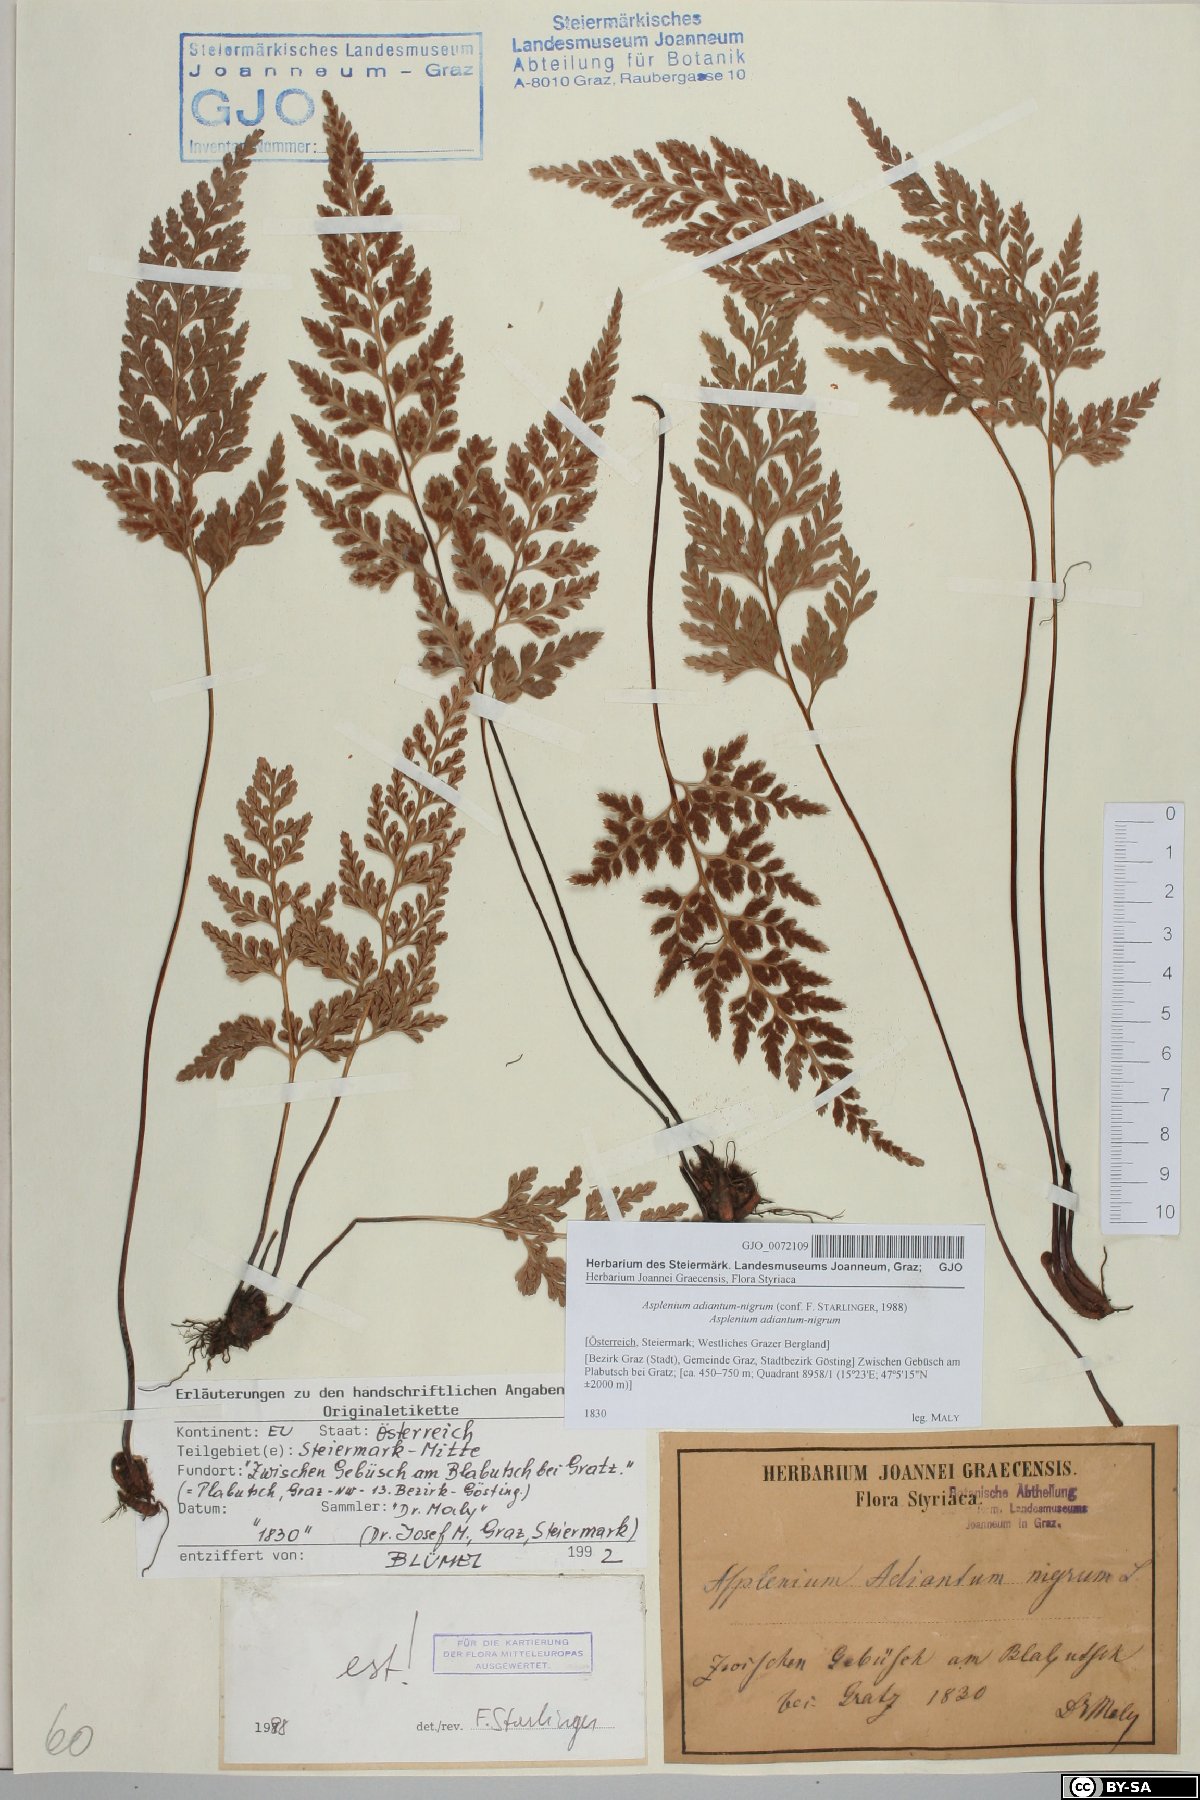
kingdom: Plantae
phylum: Tracheophyta
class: Polypodiopsida
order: Polypodiales
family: Aspleniaceae
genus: Asplenium
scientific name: Asplenium adiantum-nigrum
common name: Black spleenwort
